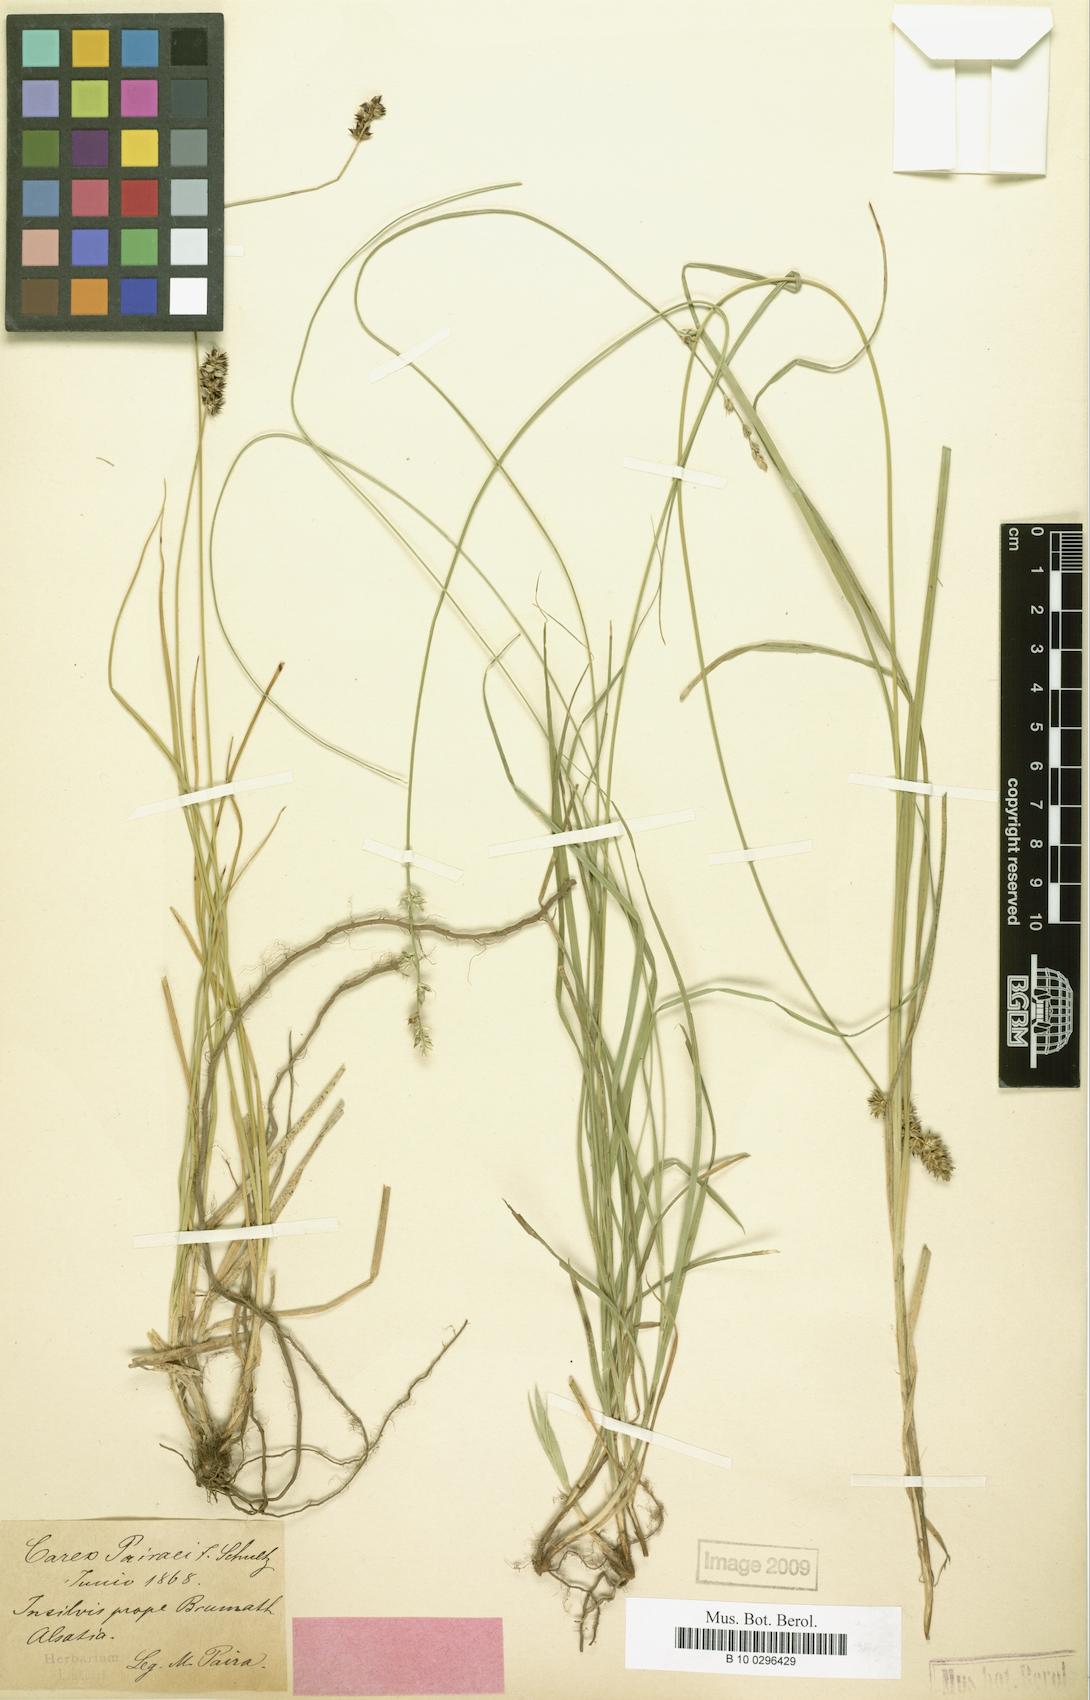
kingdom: Plantae
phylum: Tracheophyta
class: Liliopsida
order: Poales
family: Cyperaceae
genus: Carex
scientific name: Carex pairae
